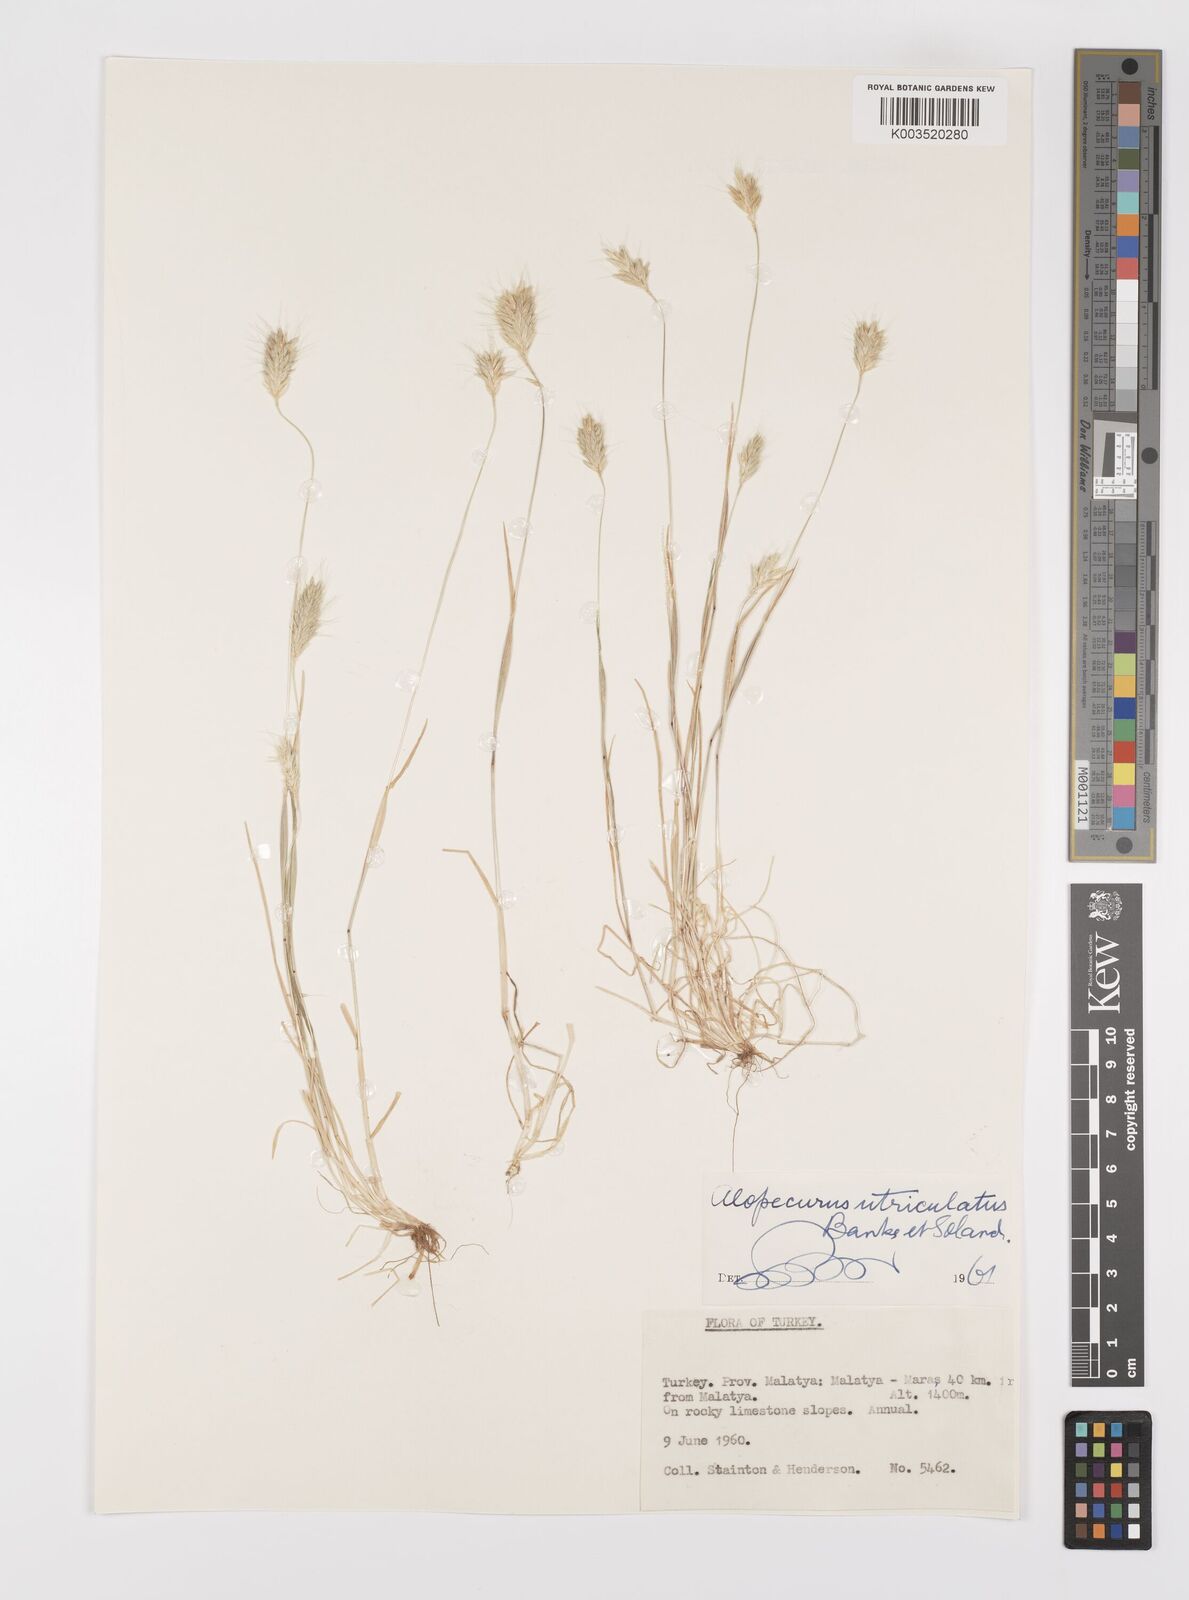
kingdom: Plantae
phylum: Tracheophyta
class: Liliopsida
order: Poales
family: Poaceae
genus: Alopecurus
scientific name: Alopecurus utriculatus
